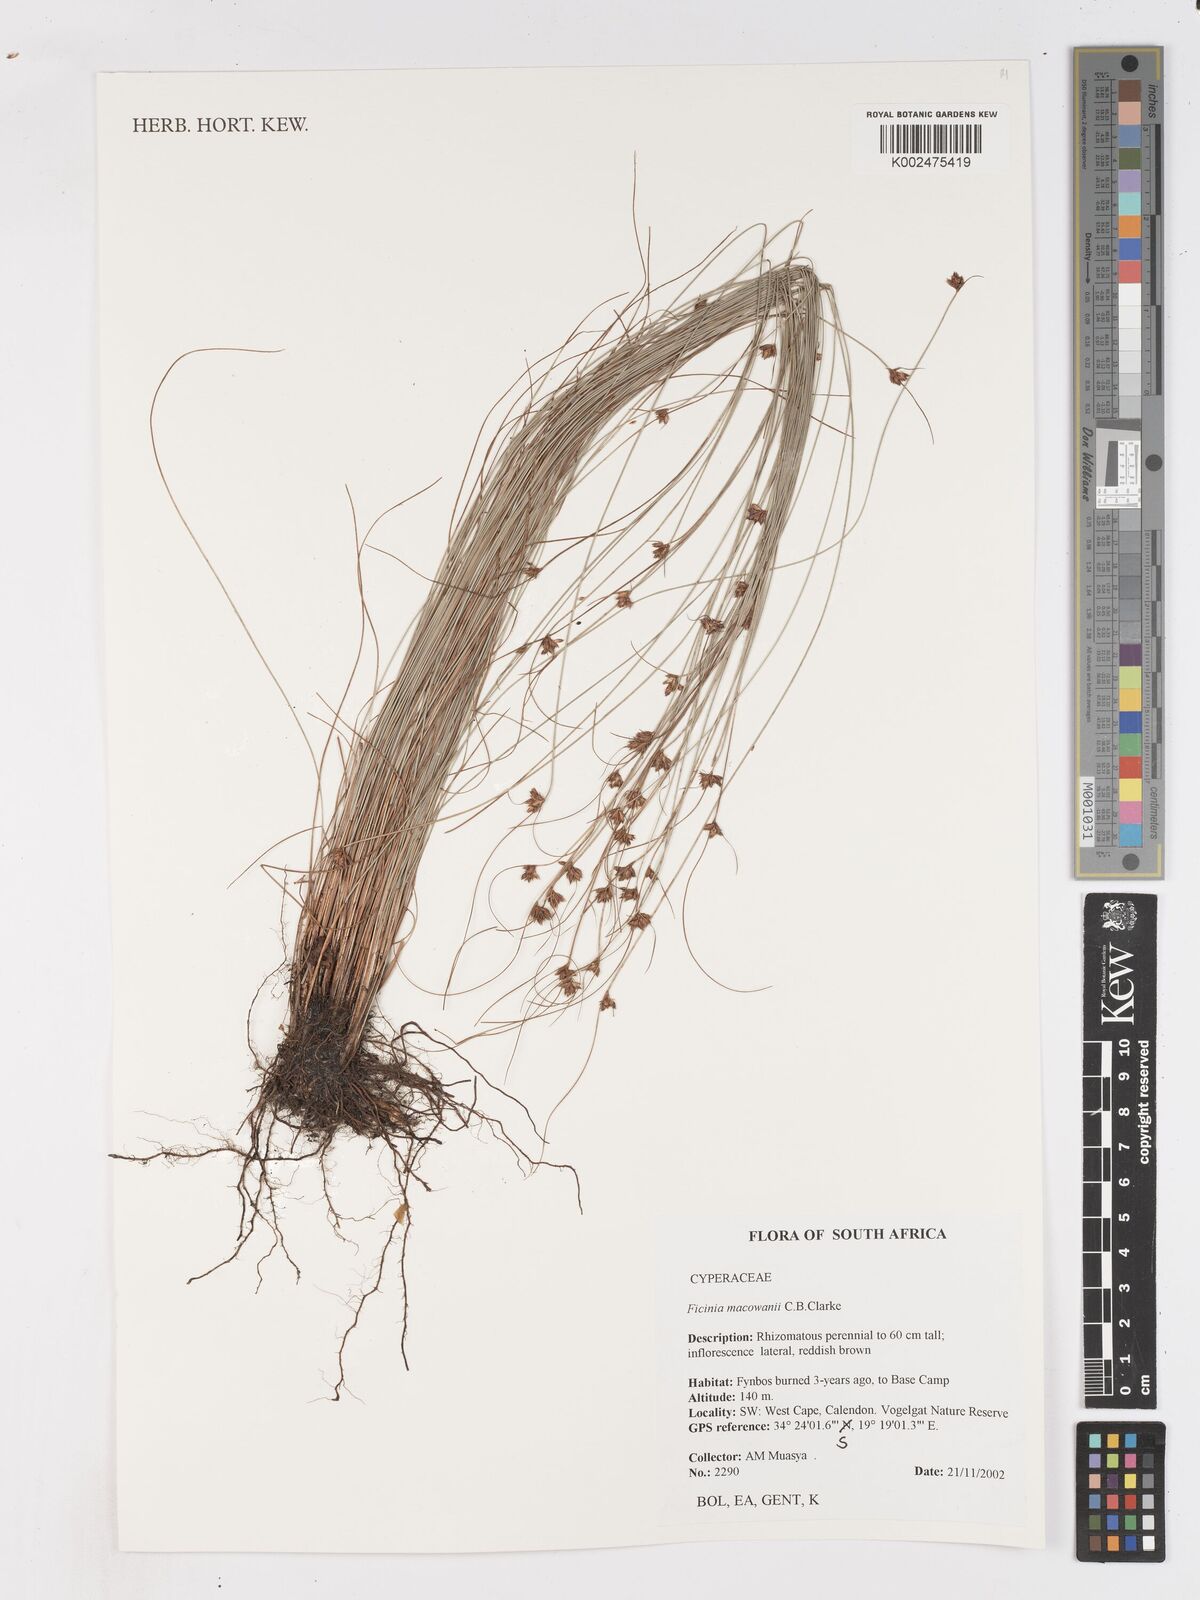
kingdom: Plantae
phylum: Tracheophyta
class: Liliopsida
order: Poales
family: Cyperaceae
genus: Ficinia
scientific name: Ficinia acuminata
